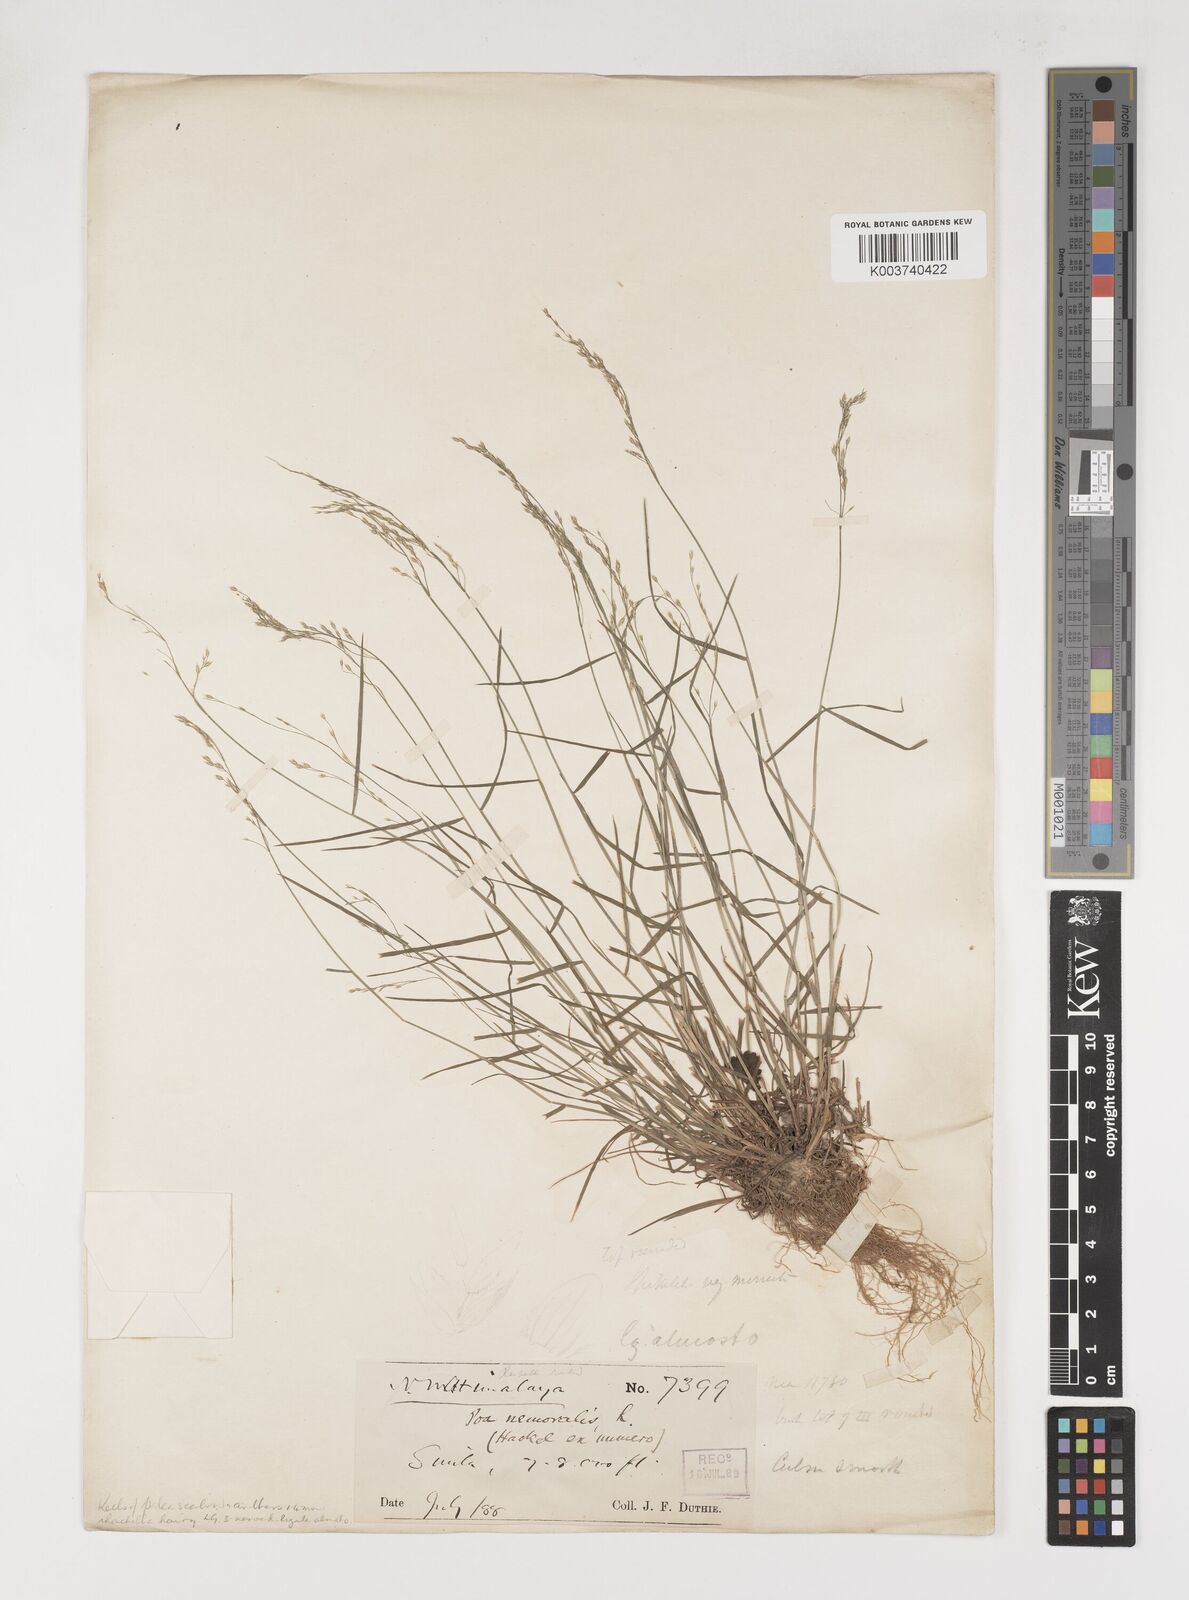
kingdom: Plantae
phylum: Tracheophyta
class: Liliopsida
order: Poales
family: Poaceae
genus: Poa
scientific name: Poa nemoralis
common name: Wood bluegrass
